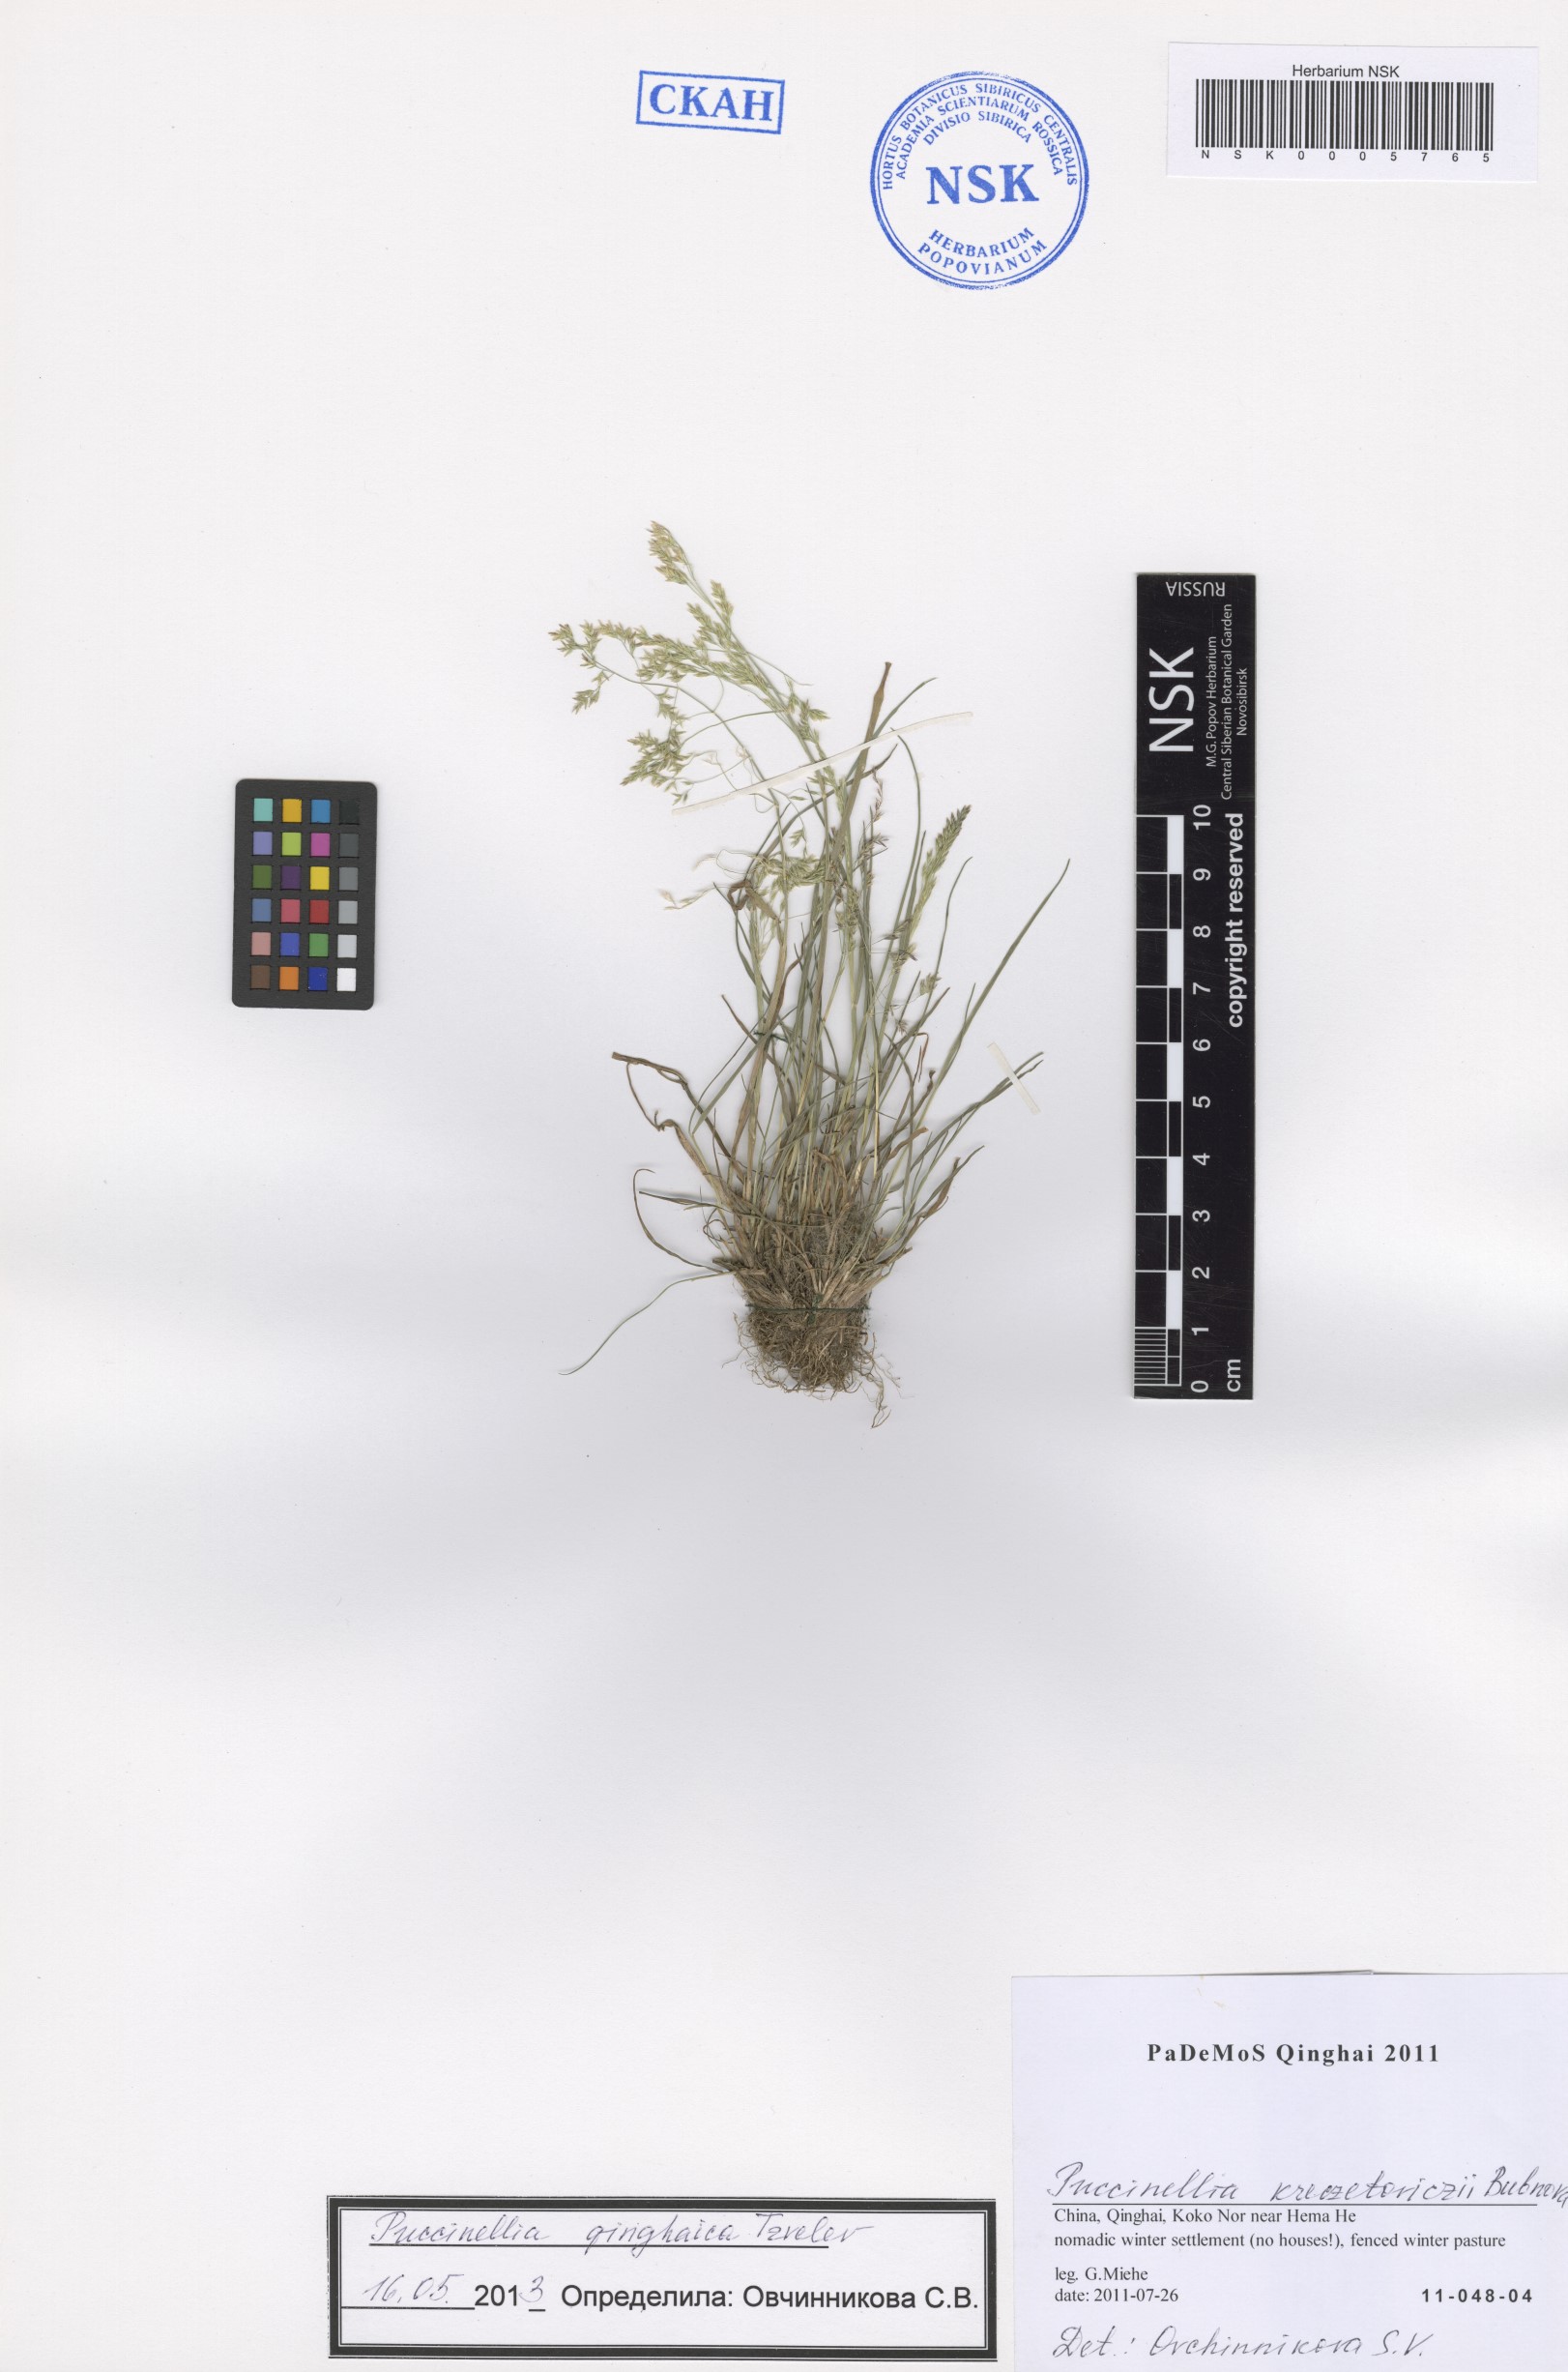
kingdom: Plantae
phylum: Tracheophyta
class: Liliopsida
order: Poales
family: Poaceae
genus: Puccinellia
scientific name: Puccinellia qinghaica
